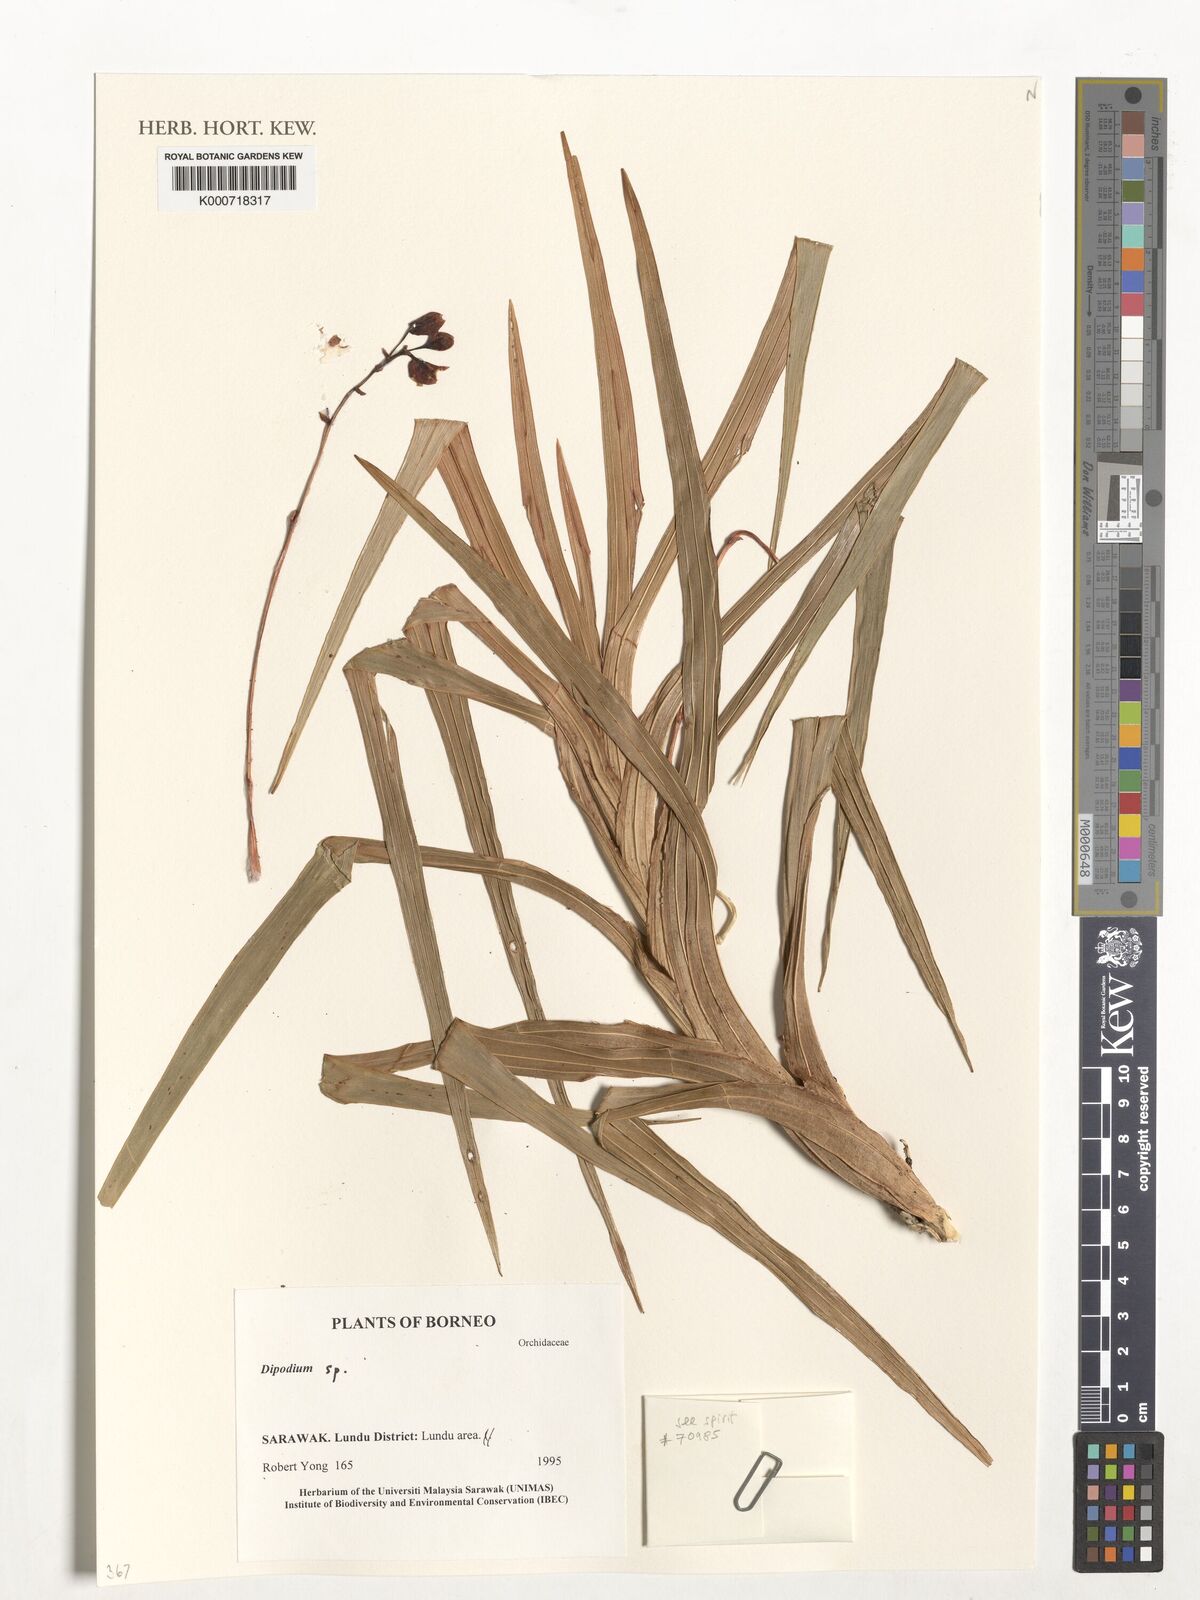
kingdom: Plantae
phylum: Tracheophyta
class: Liliopsida
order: Asparagales
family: Orchidaceae
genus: Dipodium
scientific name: Dipodium
